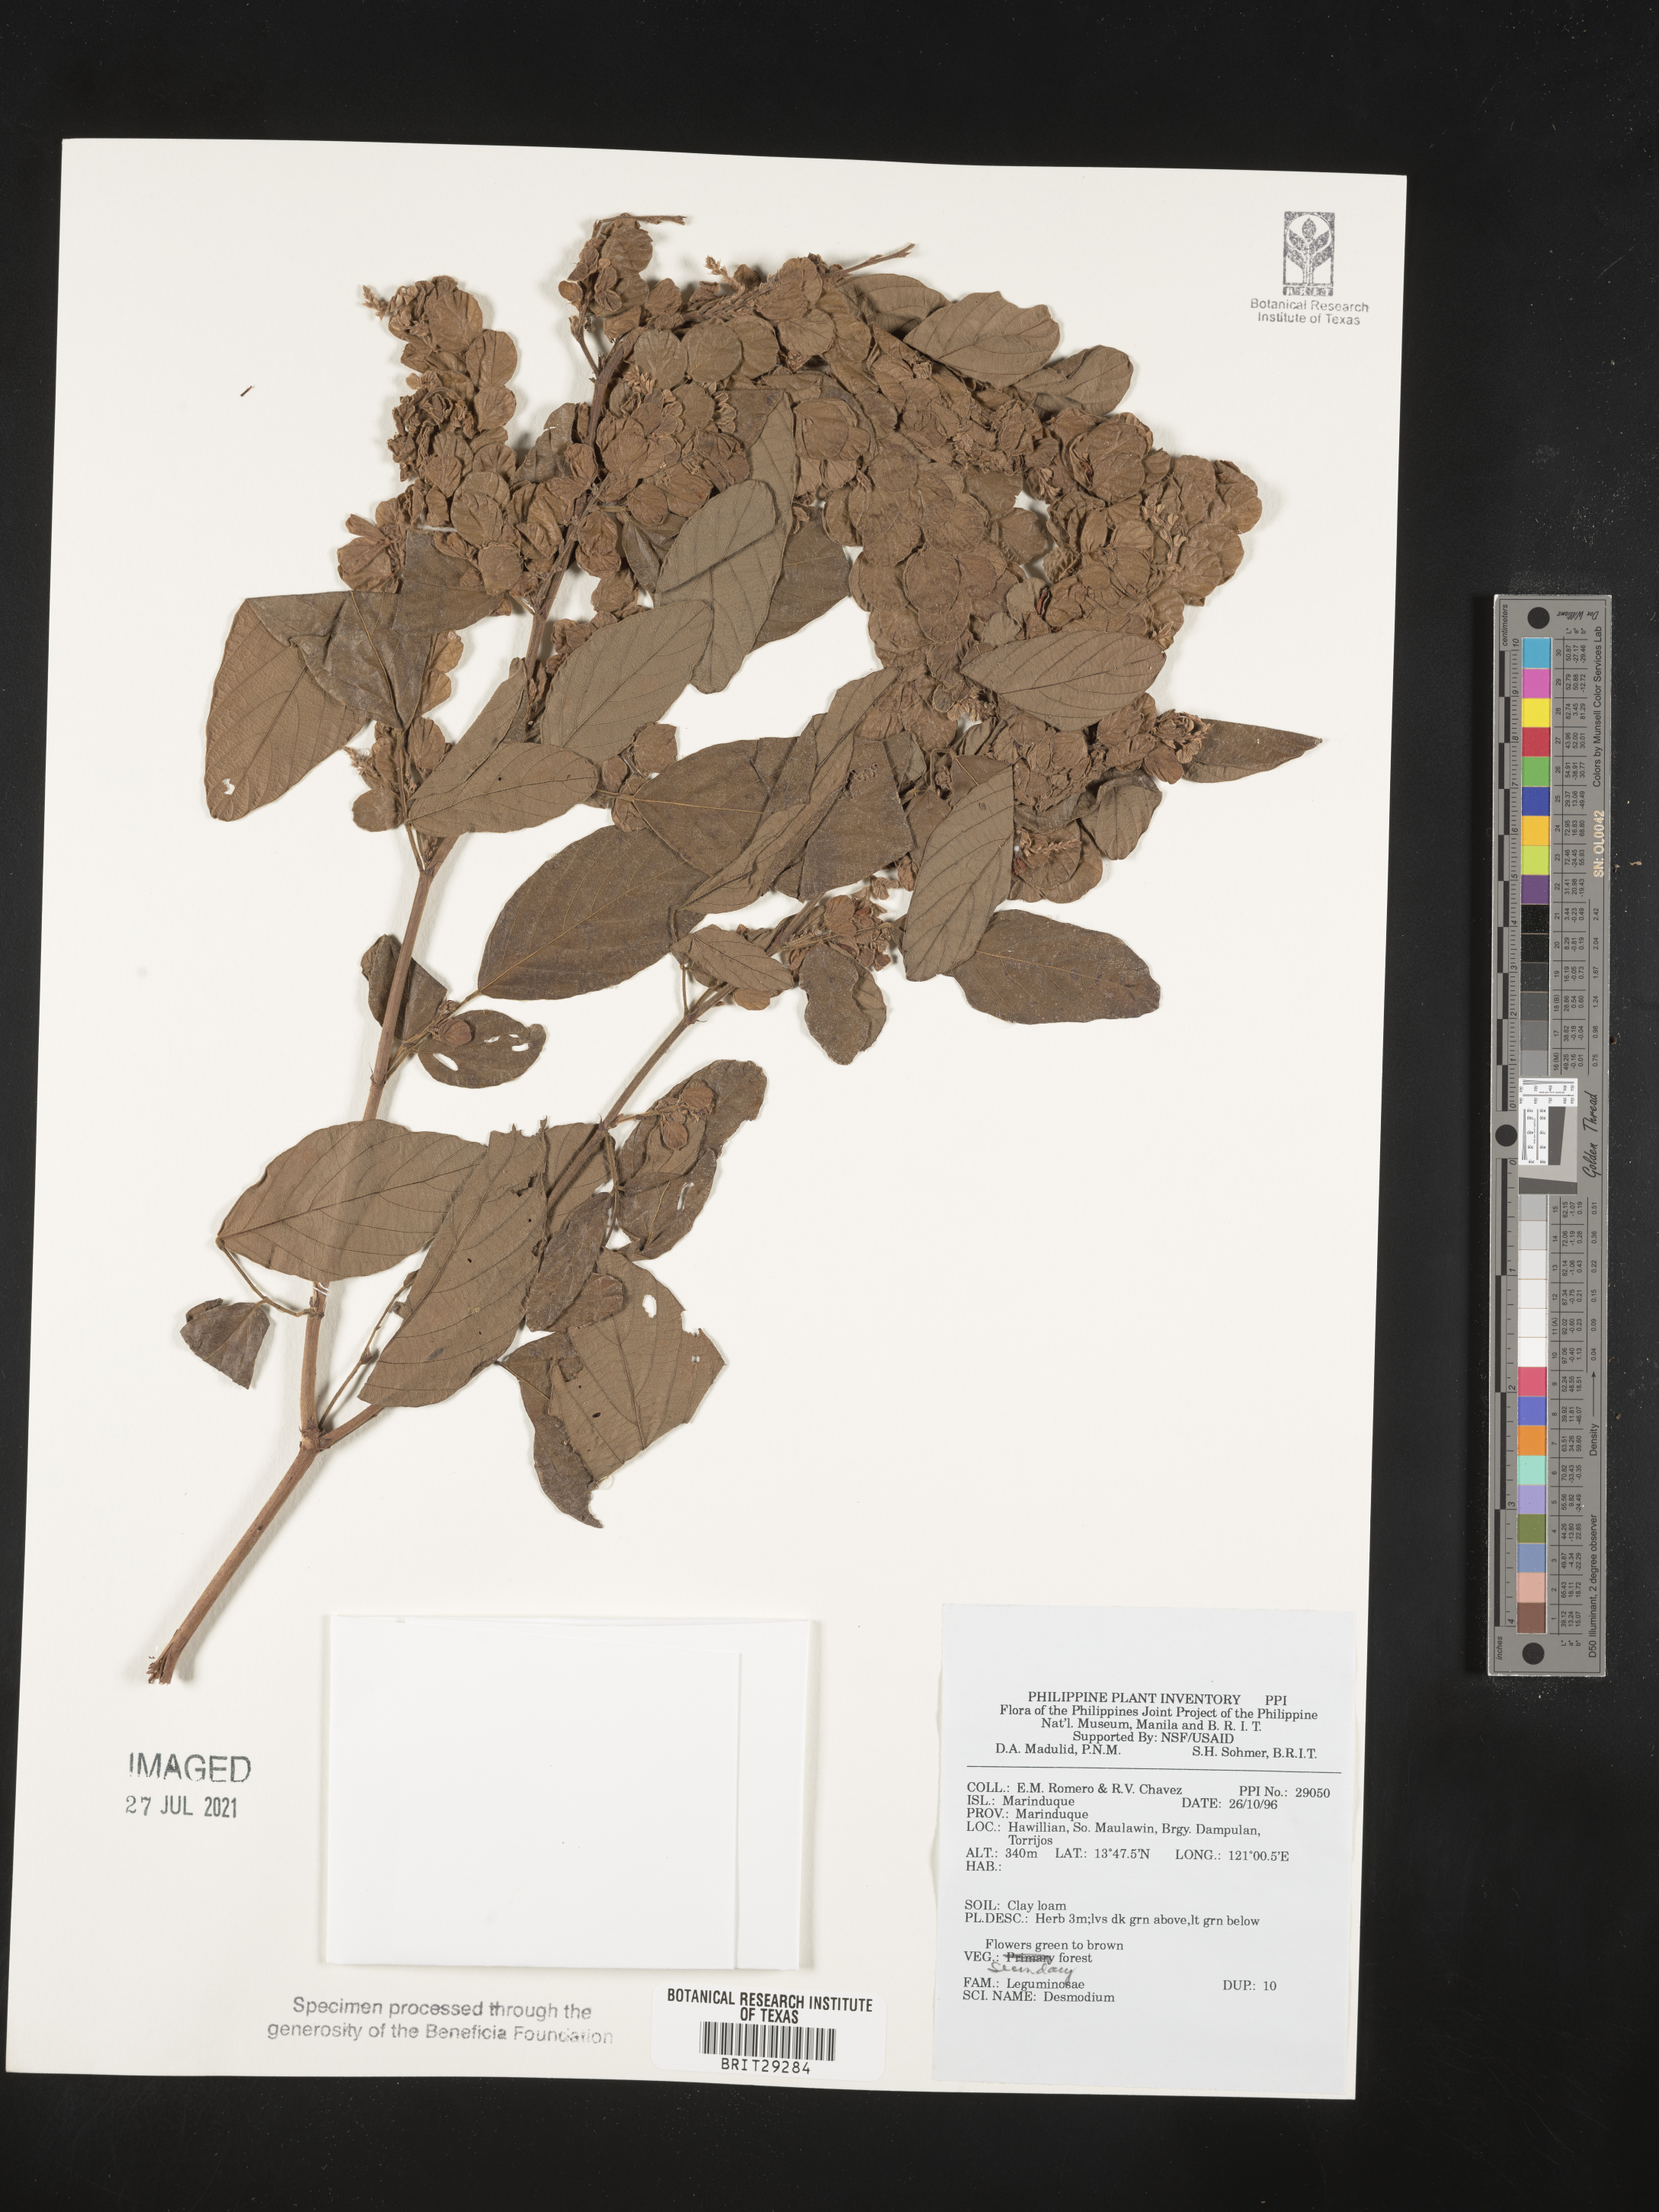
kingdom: Plantae
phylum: Tracheophyta
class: Magnoliopsida
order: Fabales
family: Fabaceae
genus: Desmodium
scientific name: Desmodium
